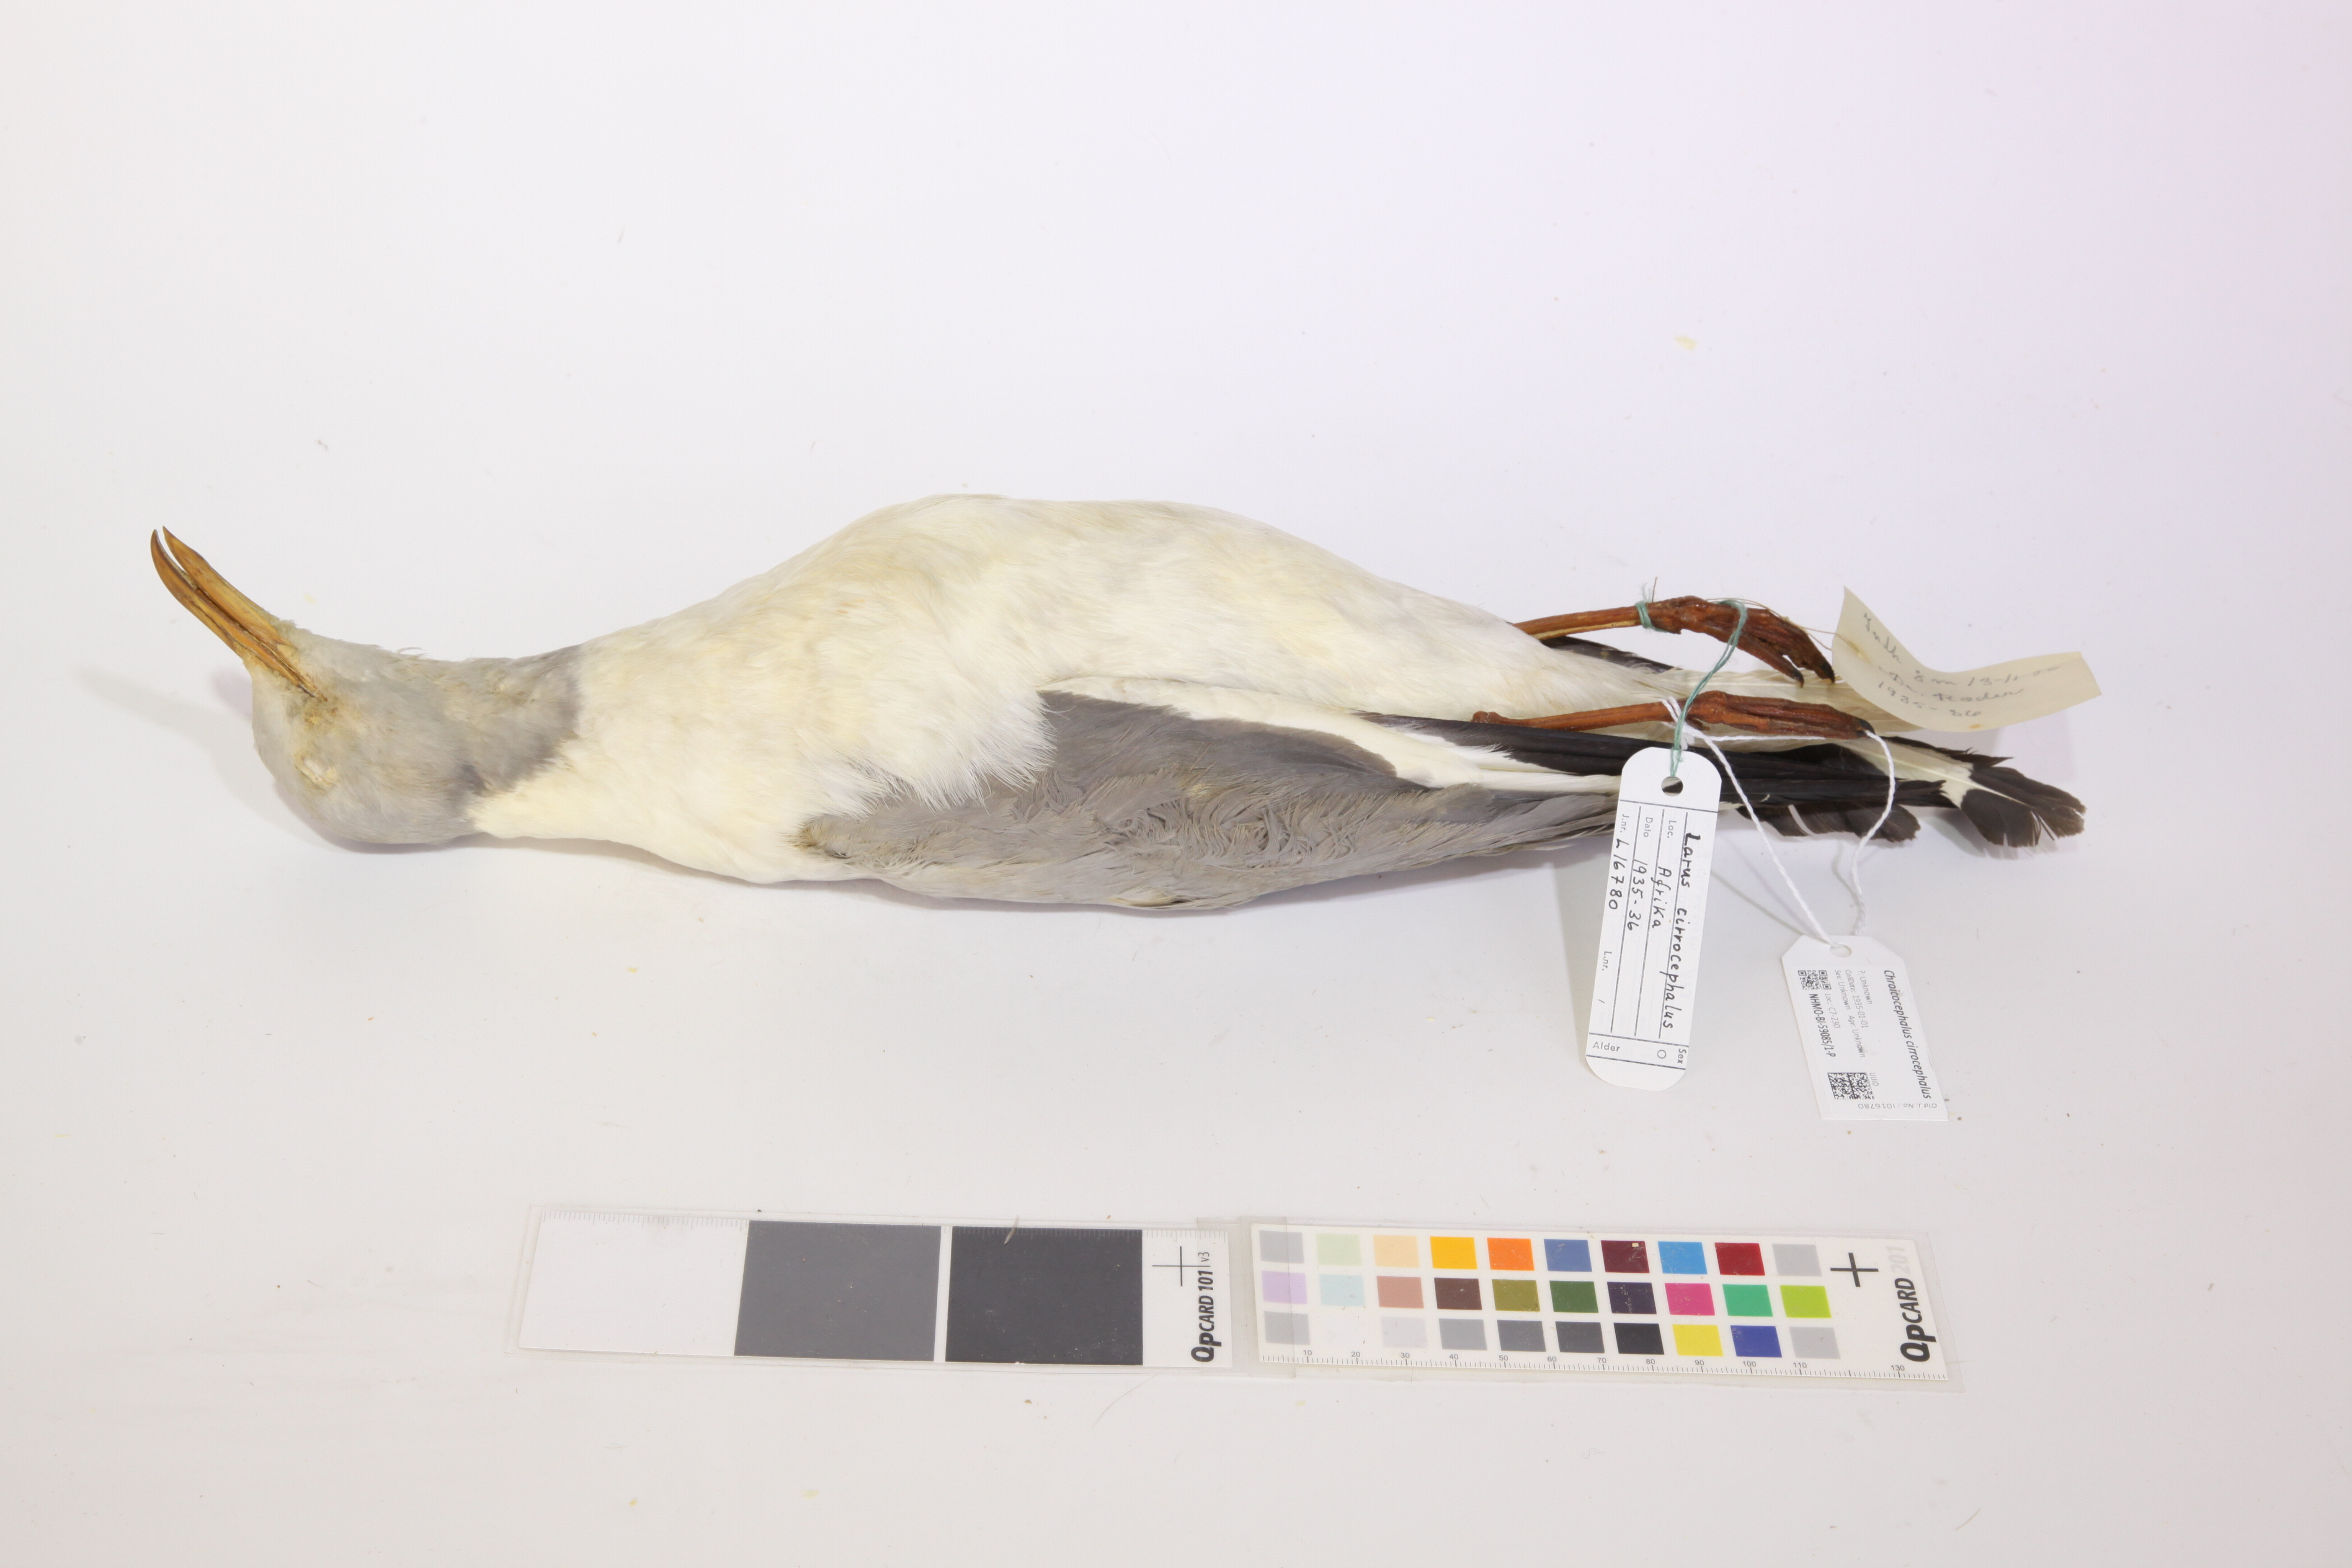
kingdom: Animalia
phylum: Chordata
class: Aves
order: Charadriiformes
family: Laridae
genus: Chroicocephalus
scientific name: Chroicocephalus cirrocephalus
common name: Grey-headed gull
